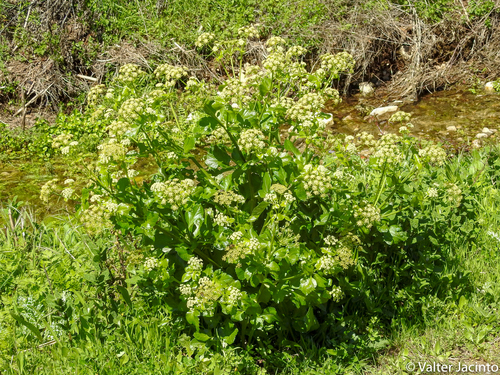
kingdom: Plantae
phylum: Tracheophyta
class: Magnoliopsida
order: Apiales
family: Apiaceae
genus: Smyrnium
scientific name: Smyrnium olusatrum
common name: Alexanders
